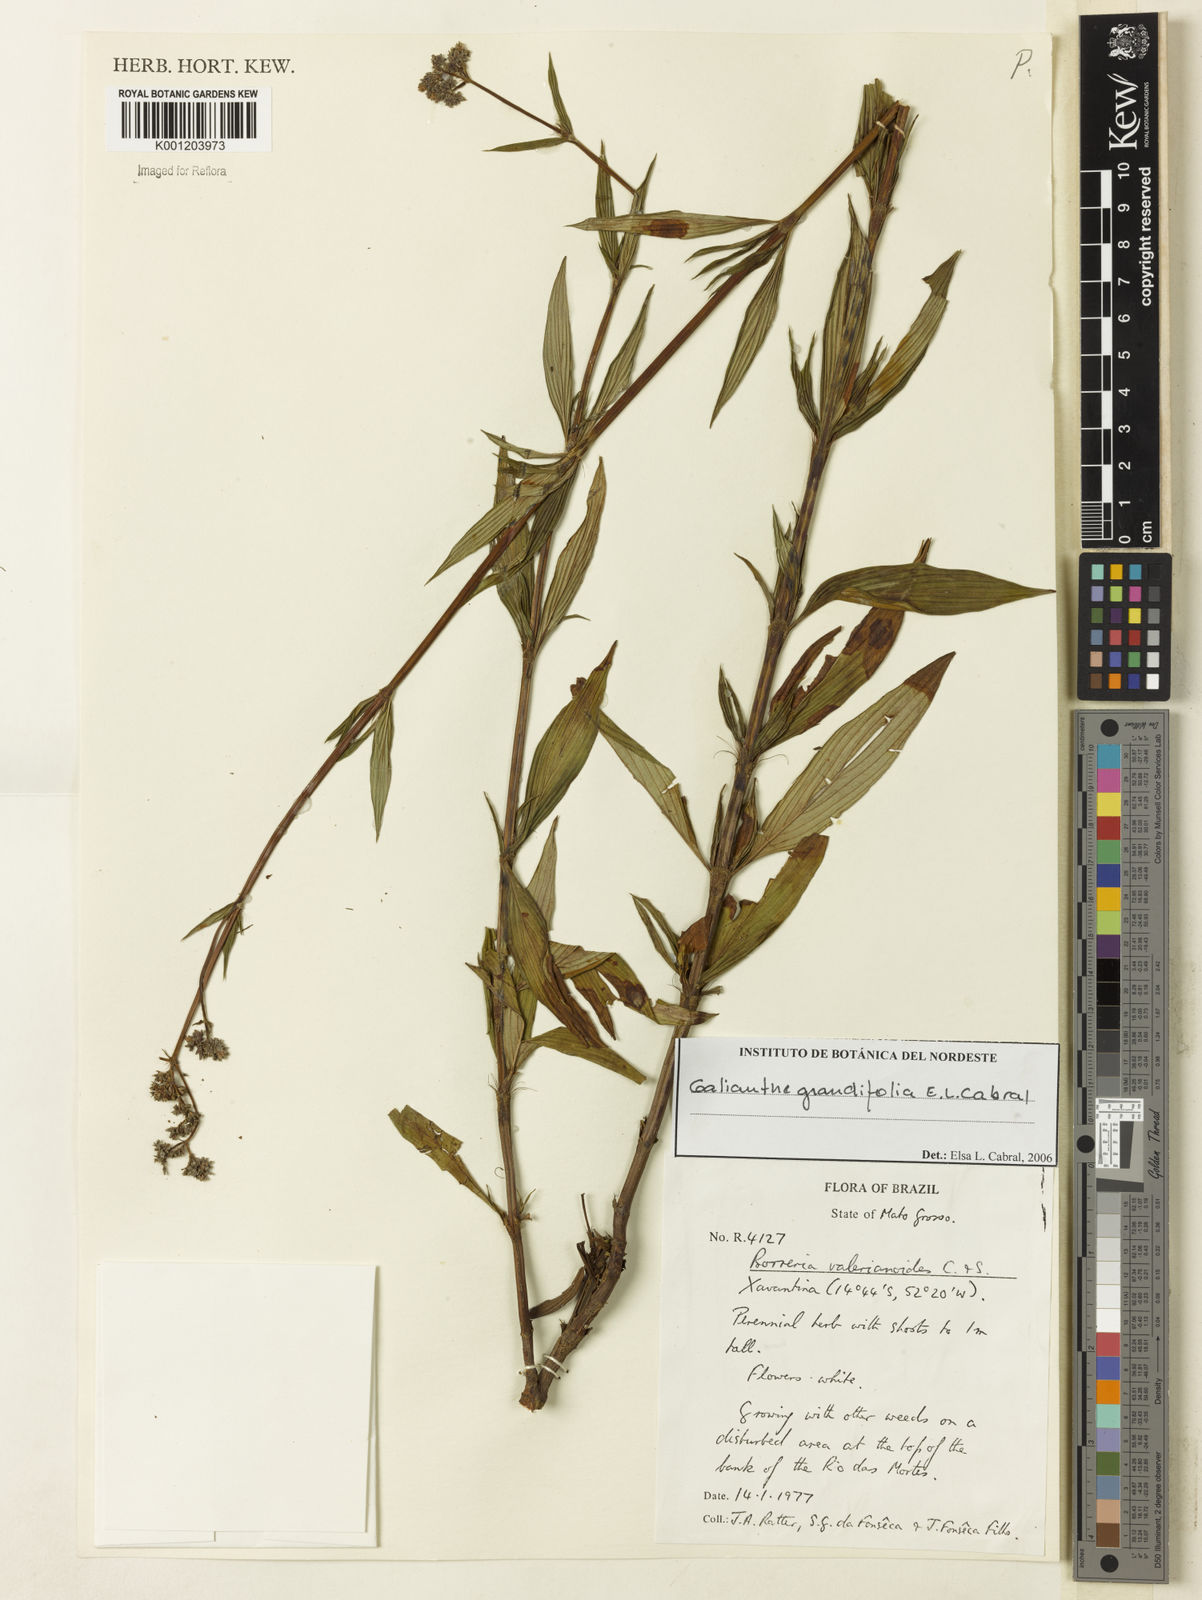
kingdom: Plantae
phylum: Tracheophyta
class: Magnoliopsida
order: Gentianales
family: Rubiaceae
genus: Galianthe
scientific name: Galianthe grandifolia
